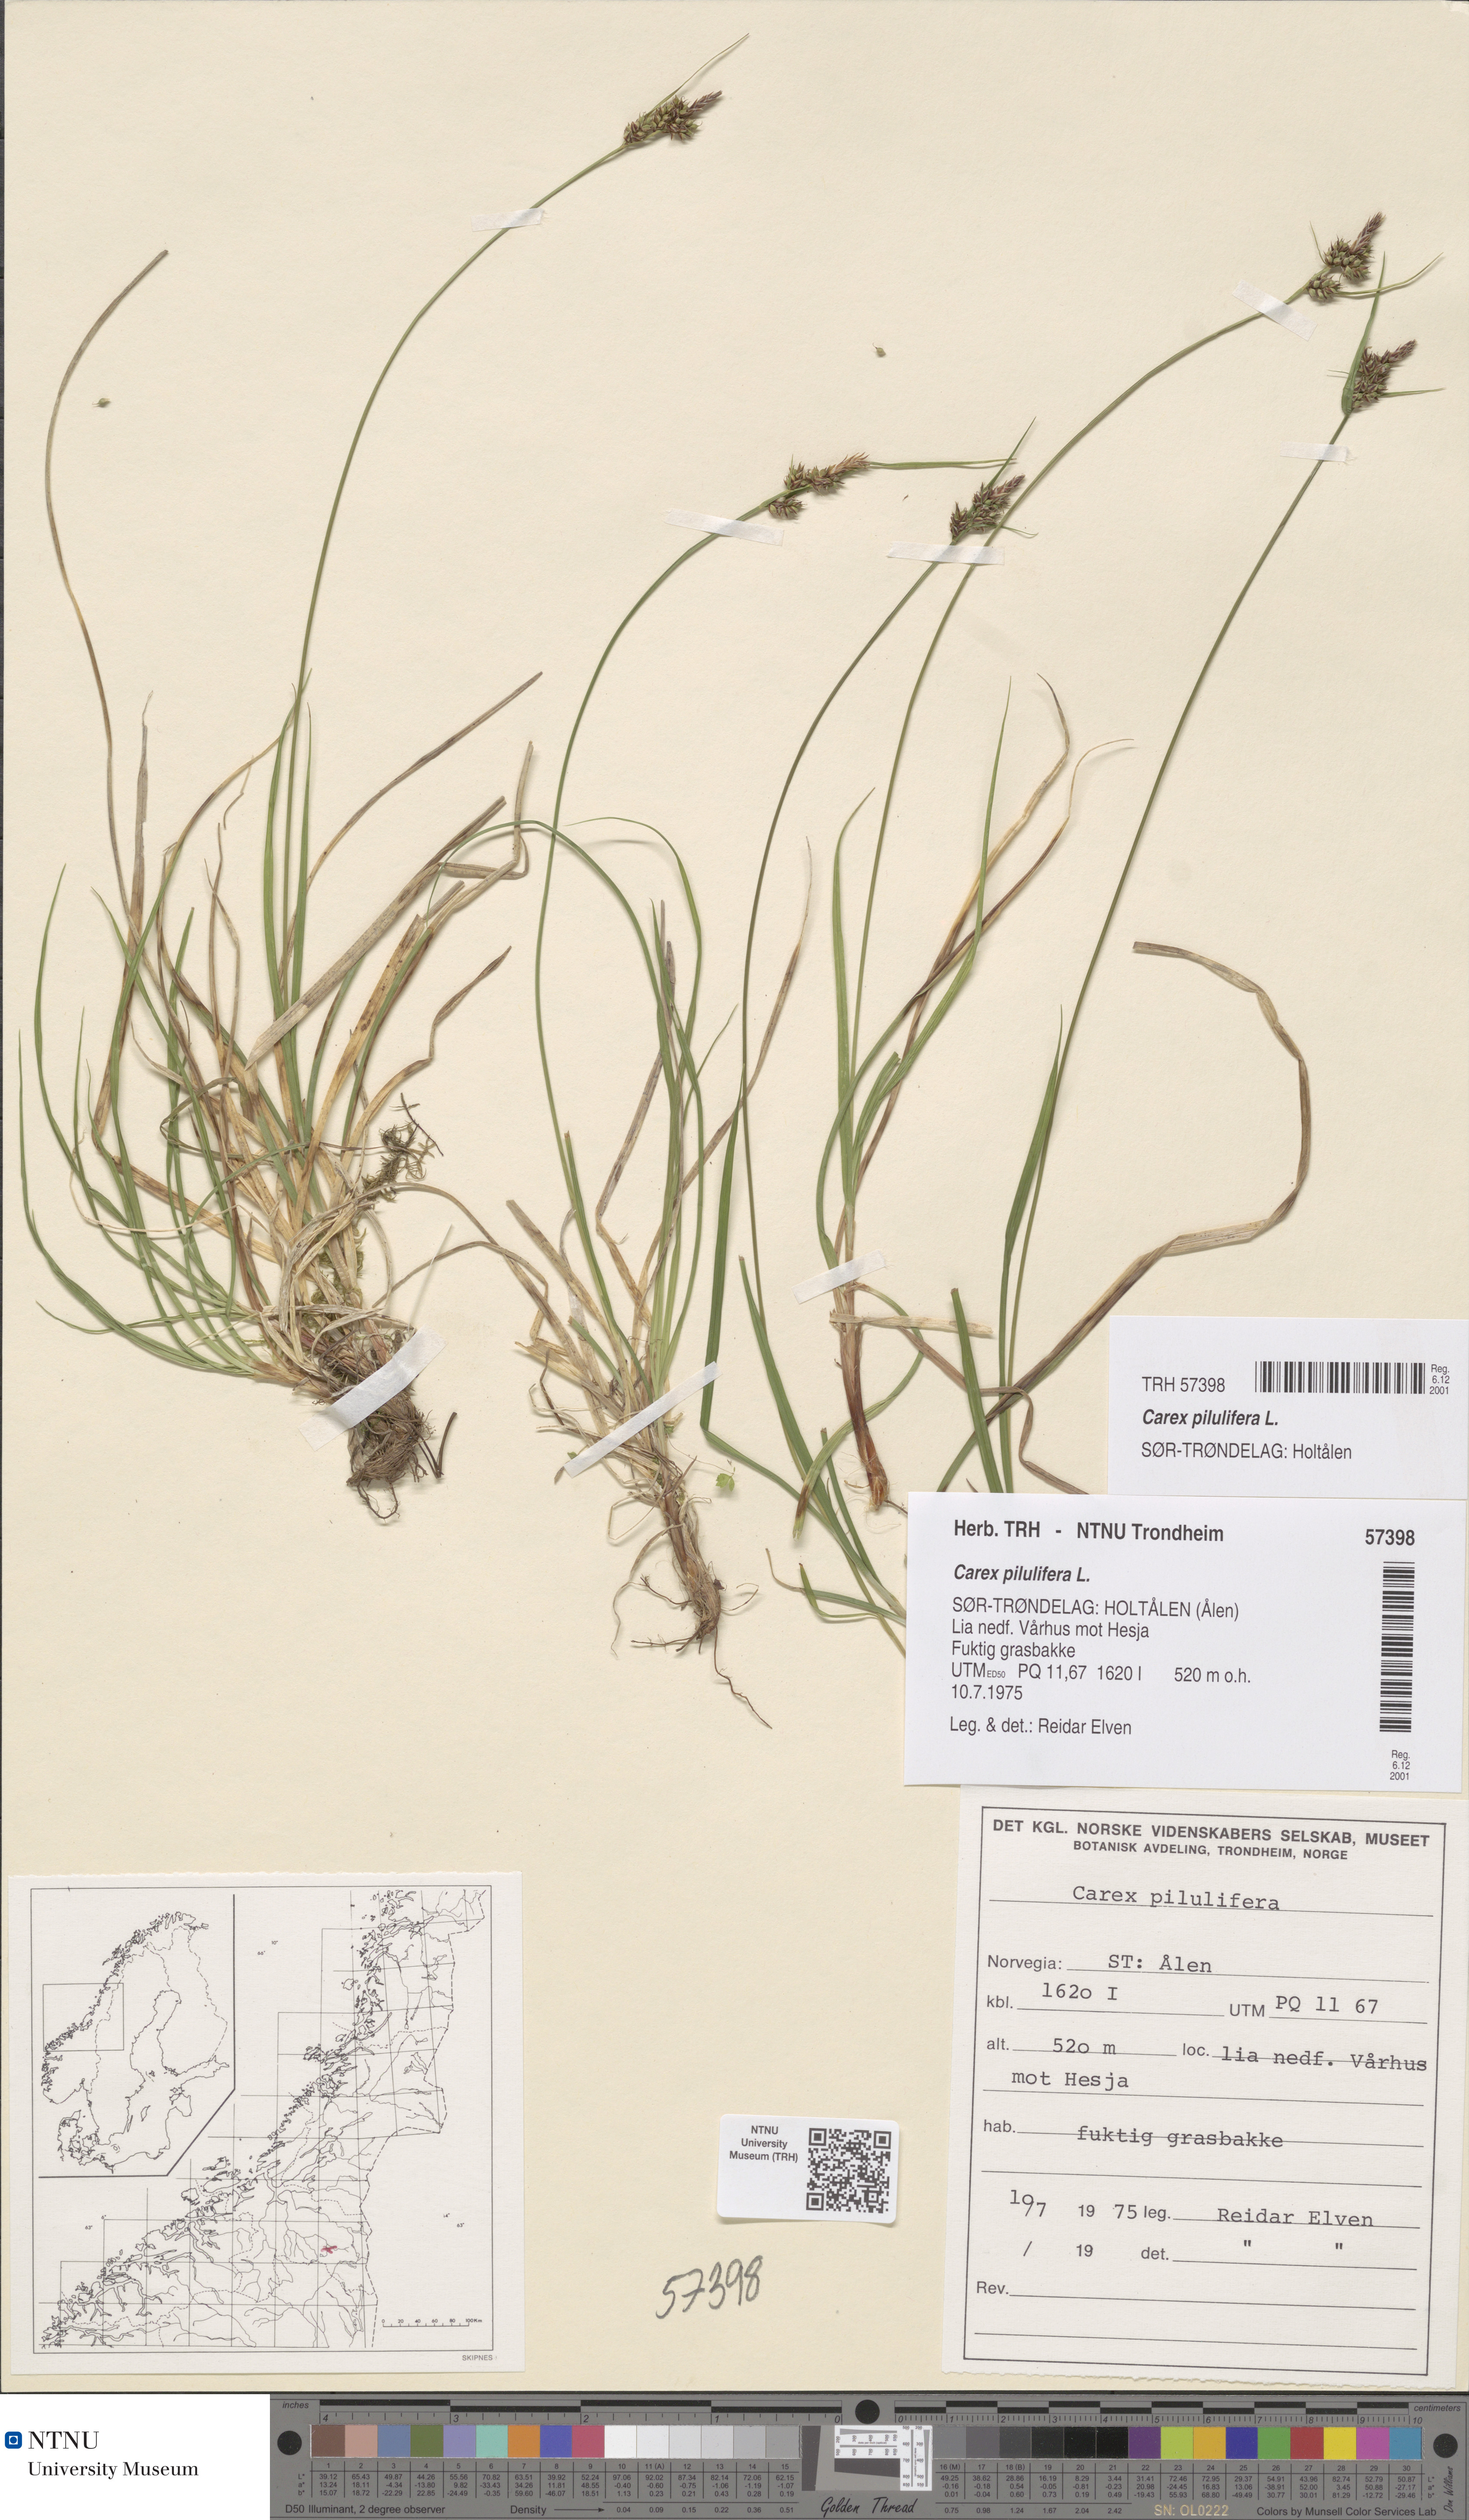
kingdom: Plantae
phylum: Tracheophyta
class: Liliopsida
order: Poales
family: Cyperaceae
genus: Carex
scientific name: Carex pilulifera
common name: Pill sedge
